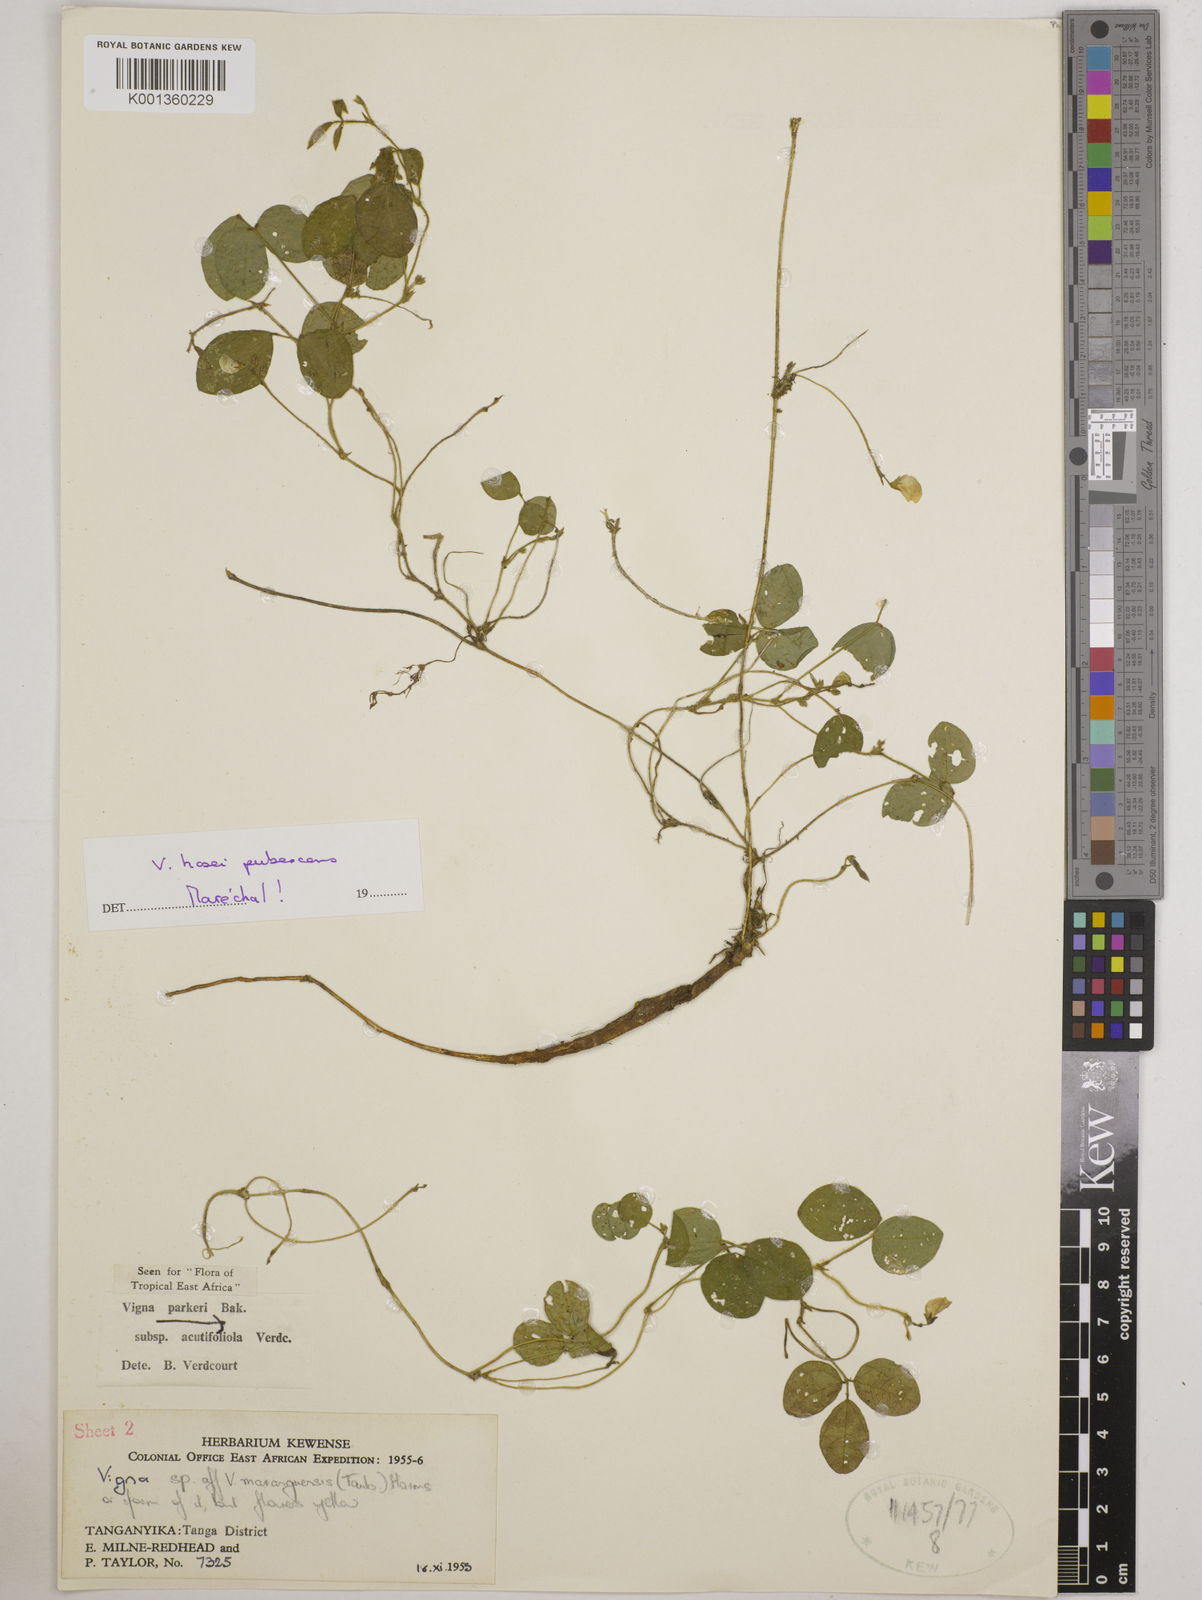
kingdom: Plantae
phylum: Tracheophyta
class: Magnoliopsida
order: Fabales
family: Fabaceae
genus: Vigna
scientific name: Vigna hosei
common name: Sarawak-bean
